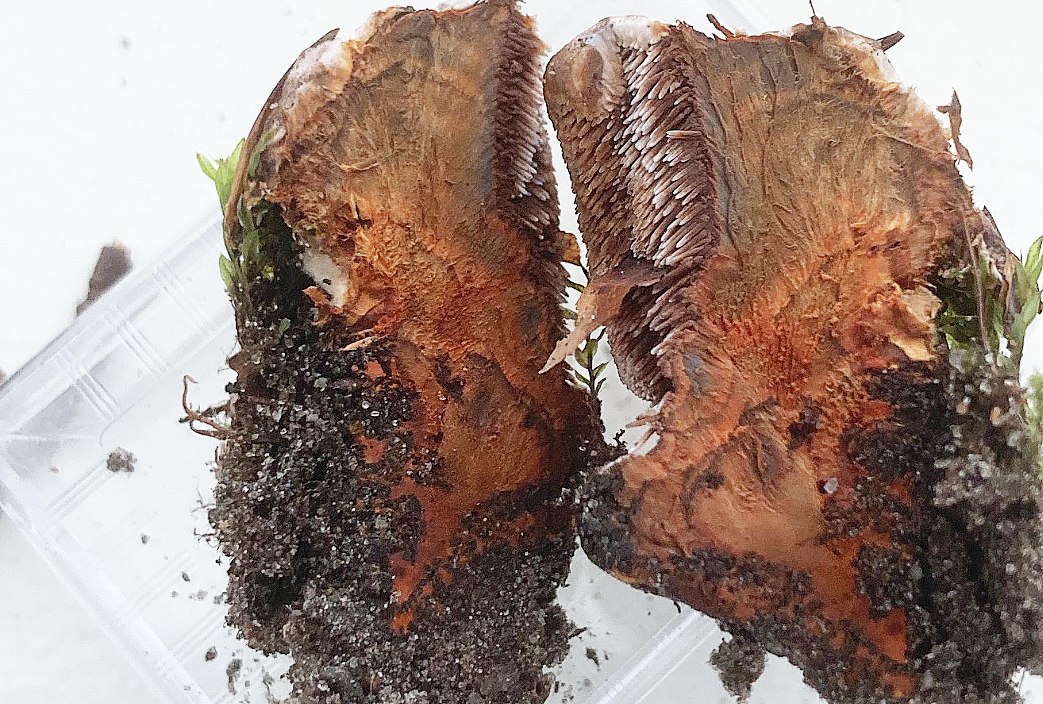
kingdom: Fungi
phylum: Basidiomycota
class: Agaricomycetes
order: Thelephorales
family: Bankeraceae
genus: Hydnellum
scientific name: Hydnellum
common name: korkpigsvamp
